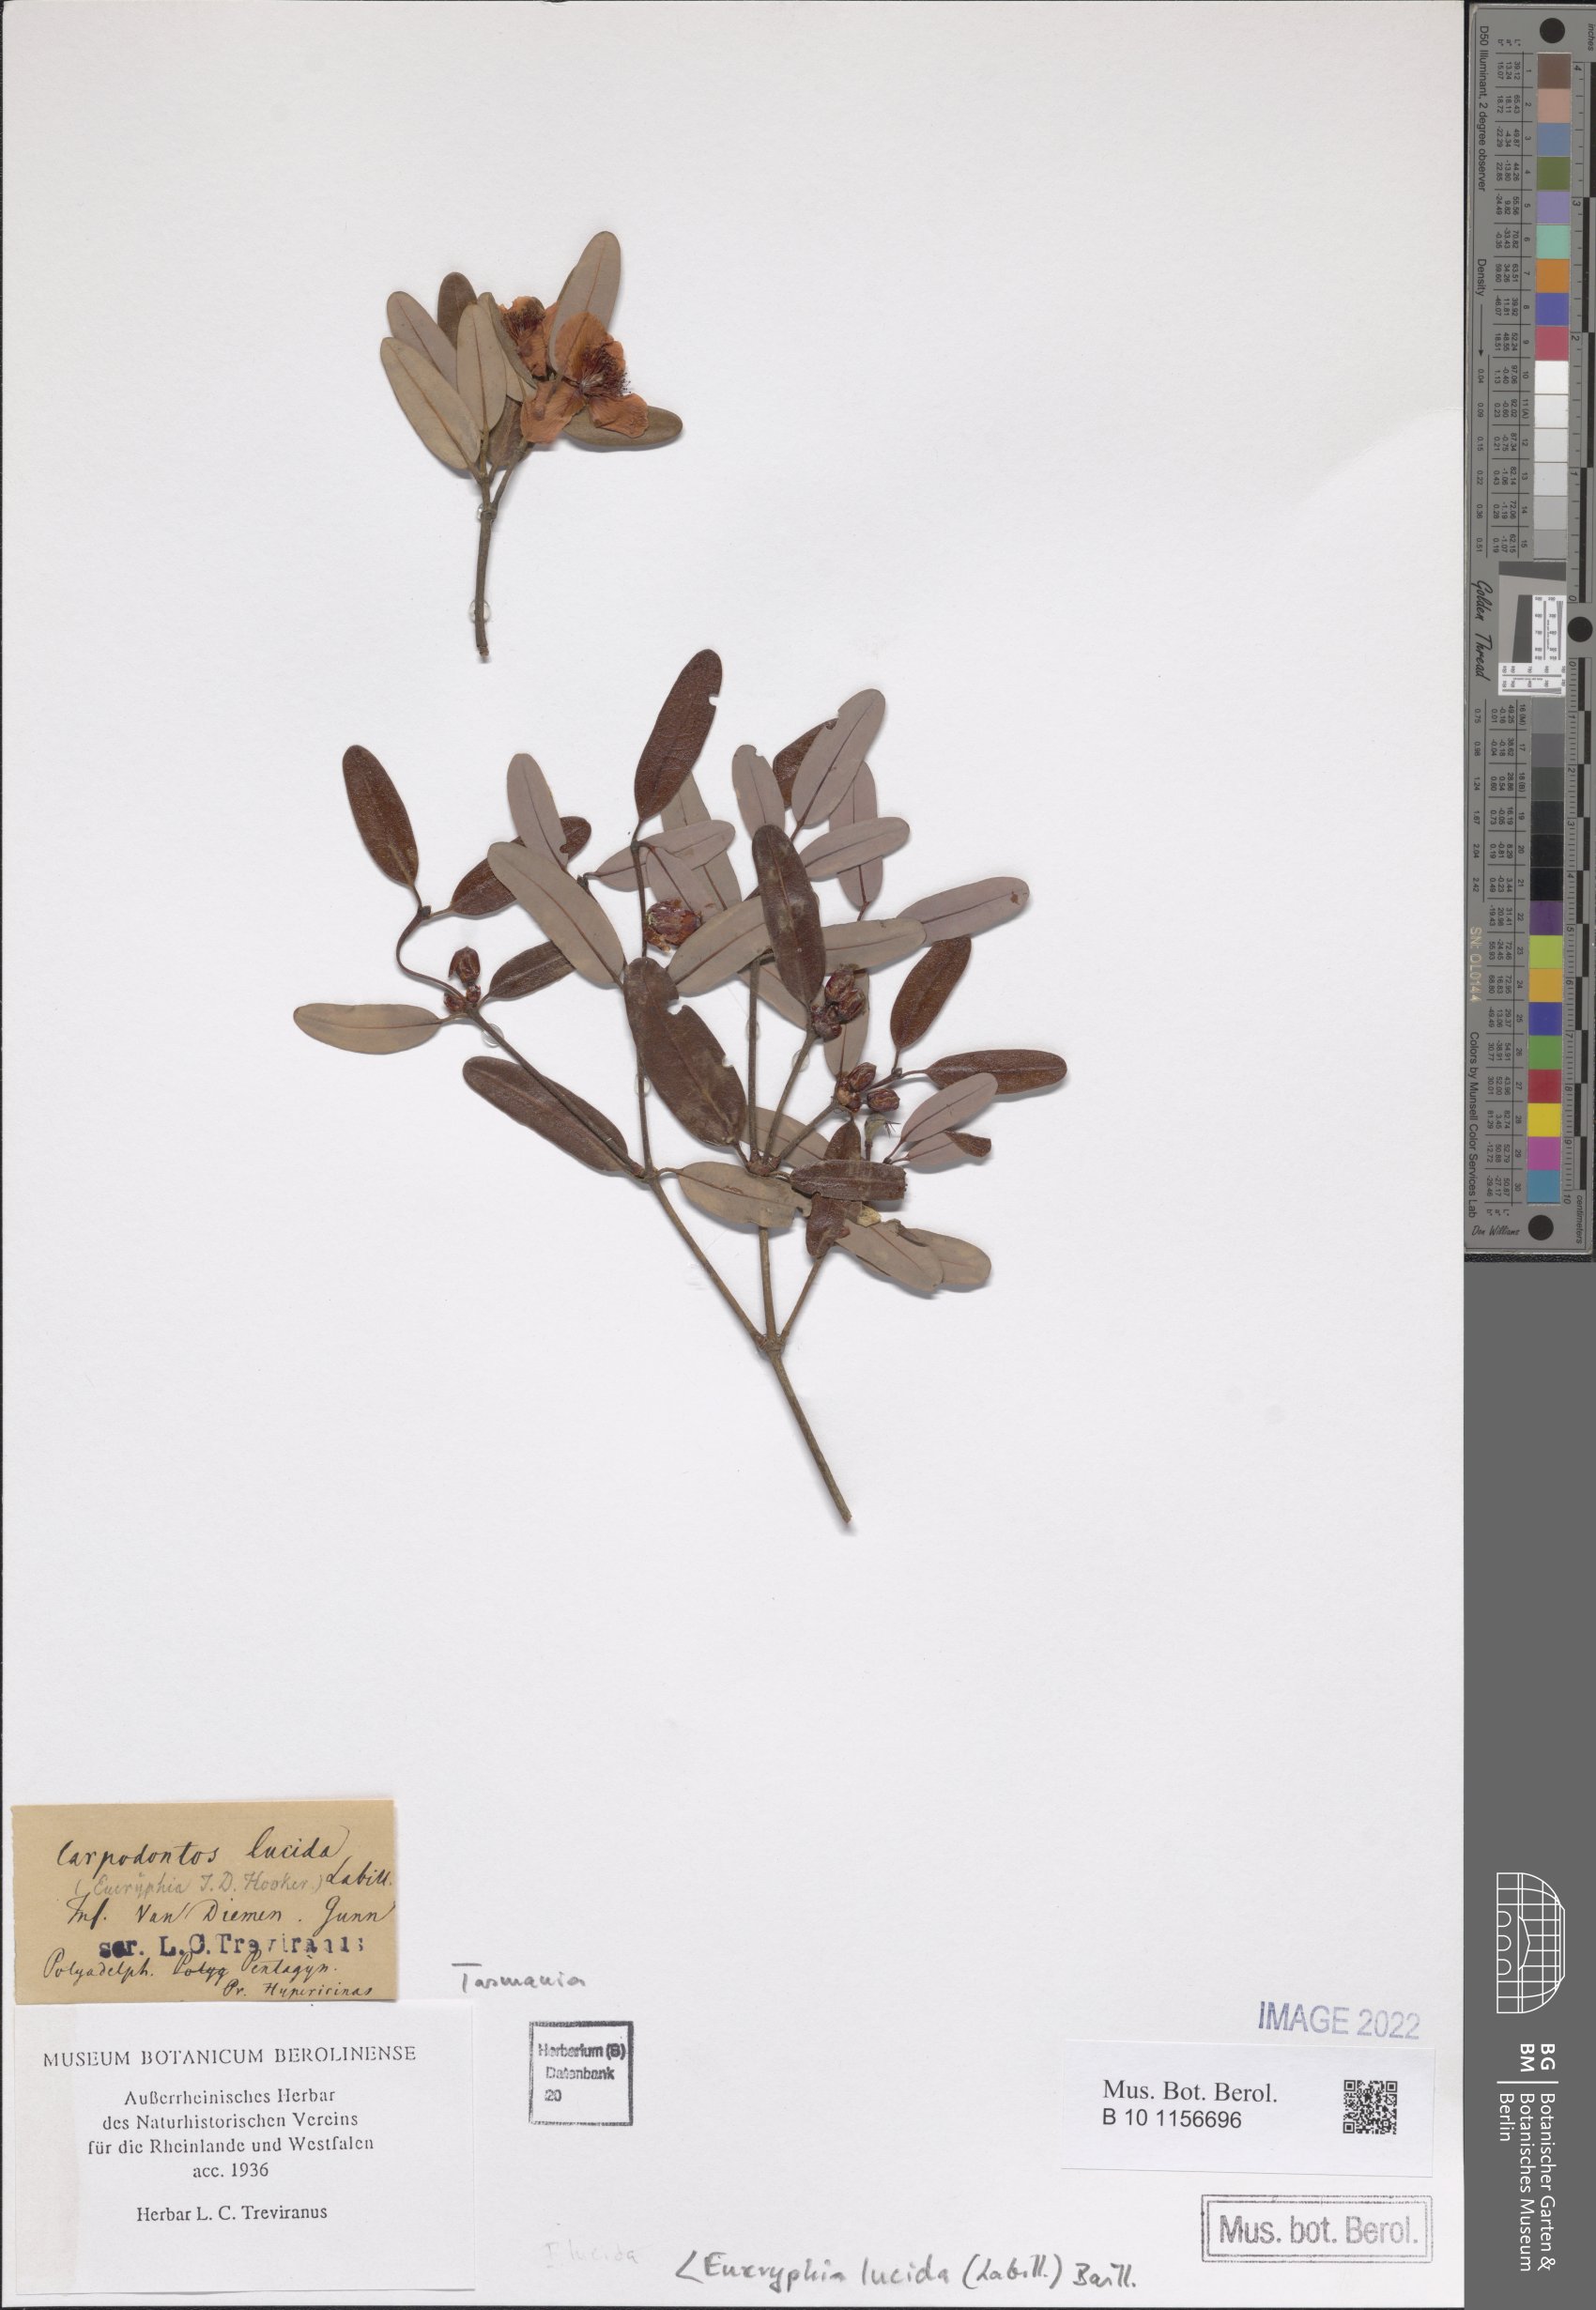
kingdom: Plantae
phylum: Tracheophyta
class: Magnoliopsida
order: Oxalidales
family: Cunoniaceae
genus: Eucryphia
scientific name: Eucryphia lucida
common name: Leatherwood
